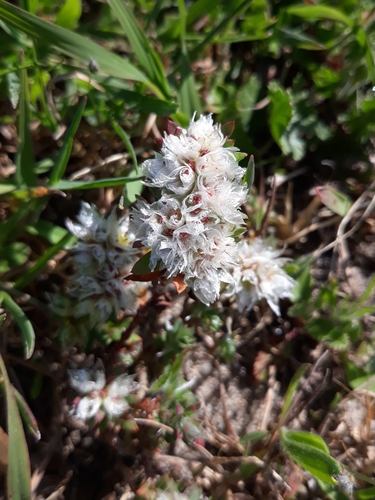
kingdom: Plantae
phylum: Tracheophyta
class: Magnoliopsida
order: Caryophyllales
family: Caryophyllaceae
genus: Paronychia
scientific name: Paronychia argentea
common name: Silver nailroot
